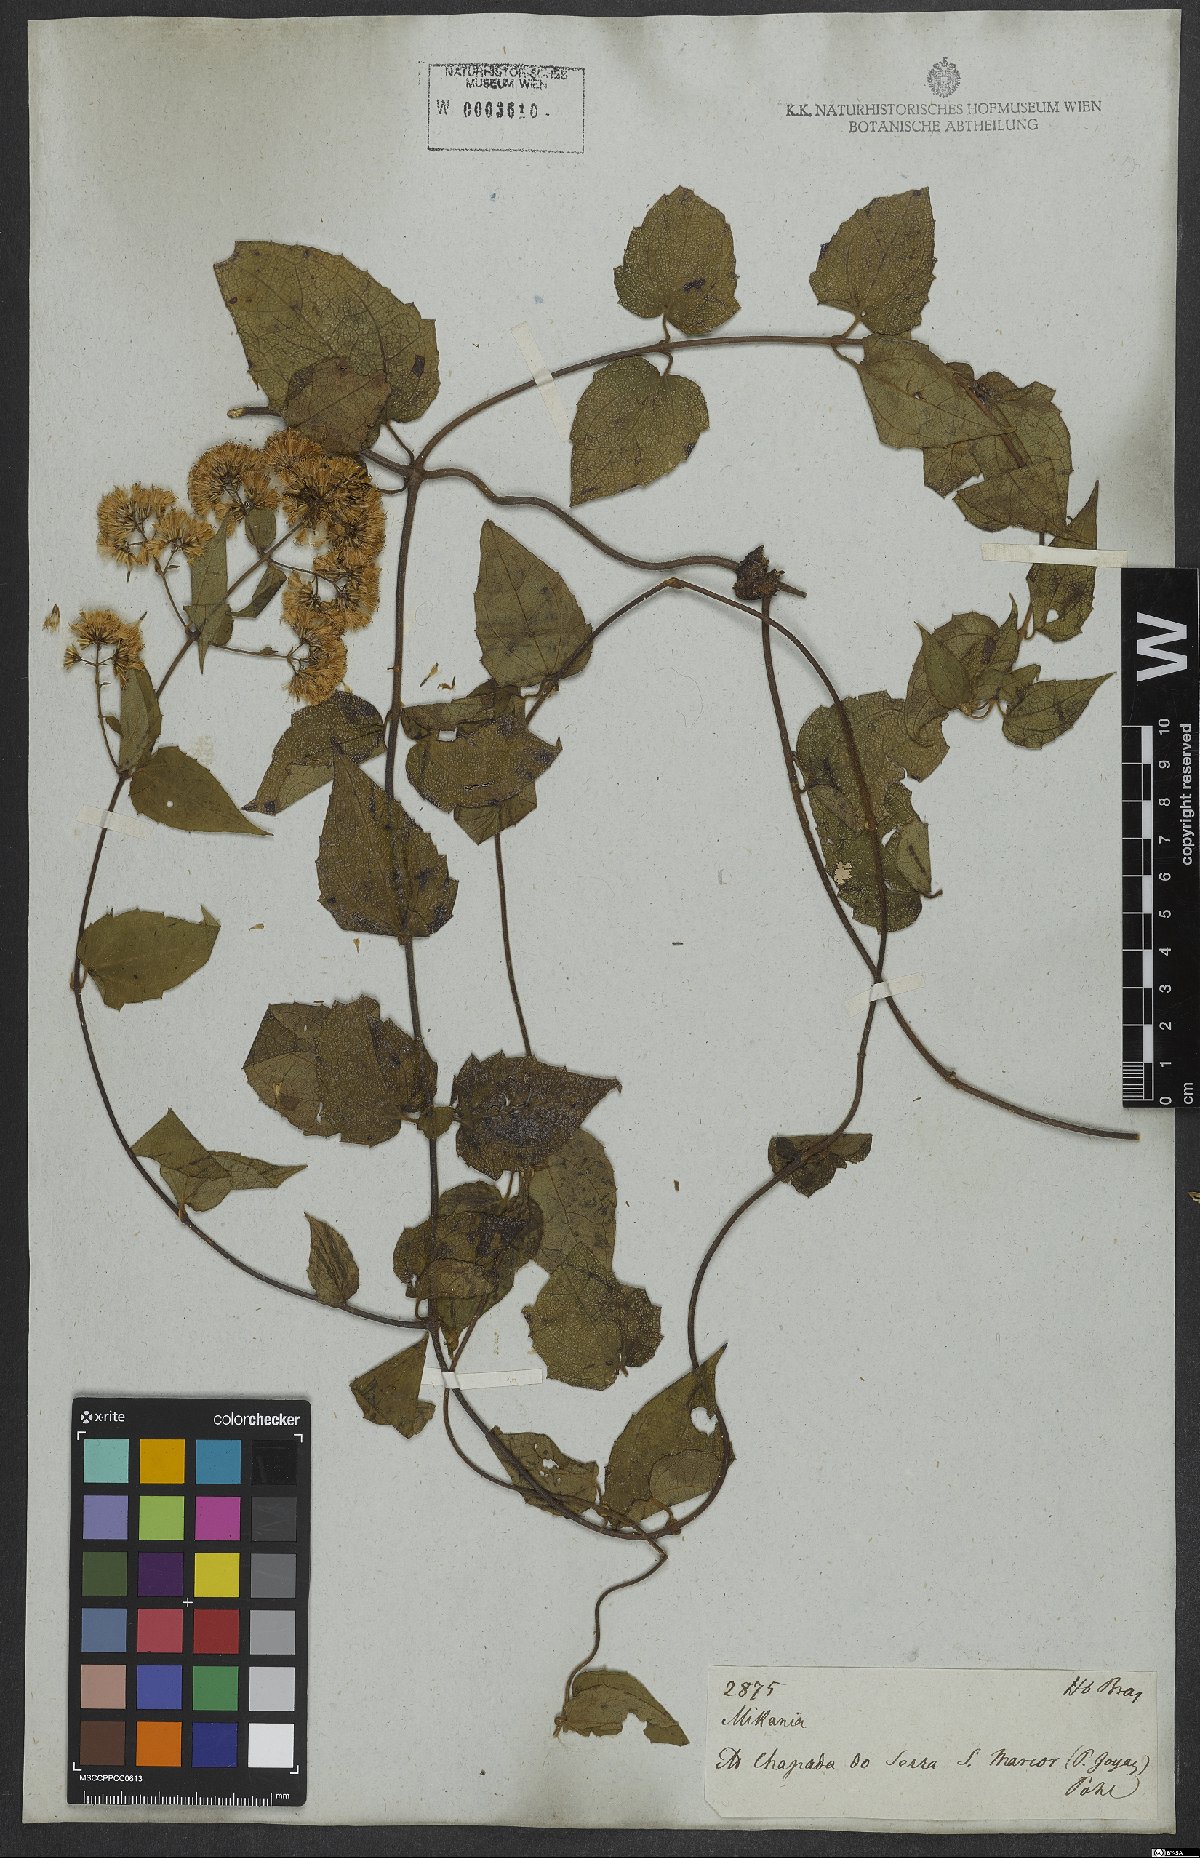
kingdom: Plantae
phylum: Tracheophyta
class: Magnoliopsida
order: Asterales
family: Asteraceae
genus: Mikania
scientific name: Mikania microdonta
